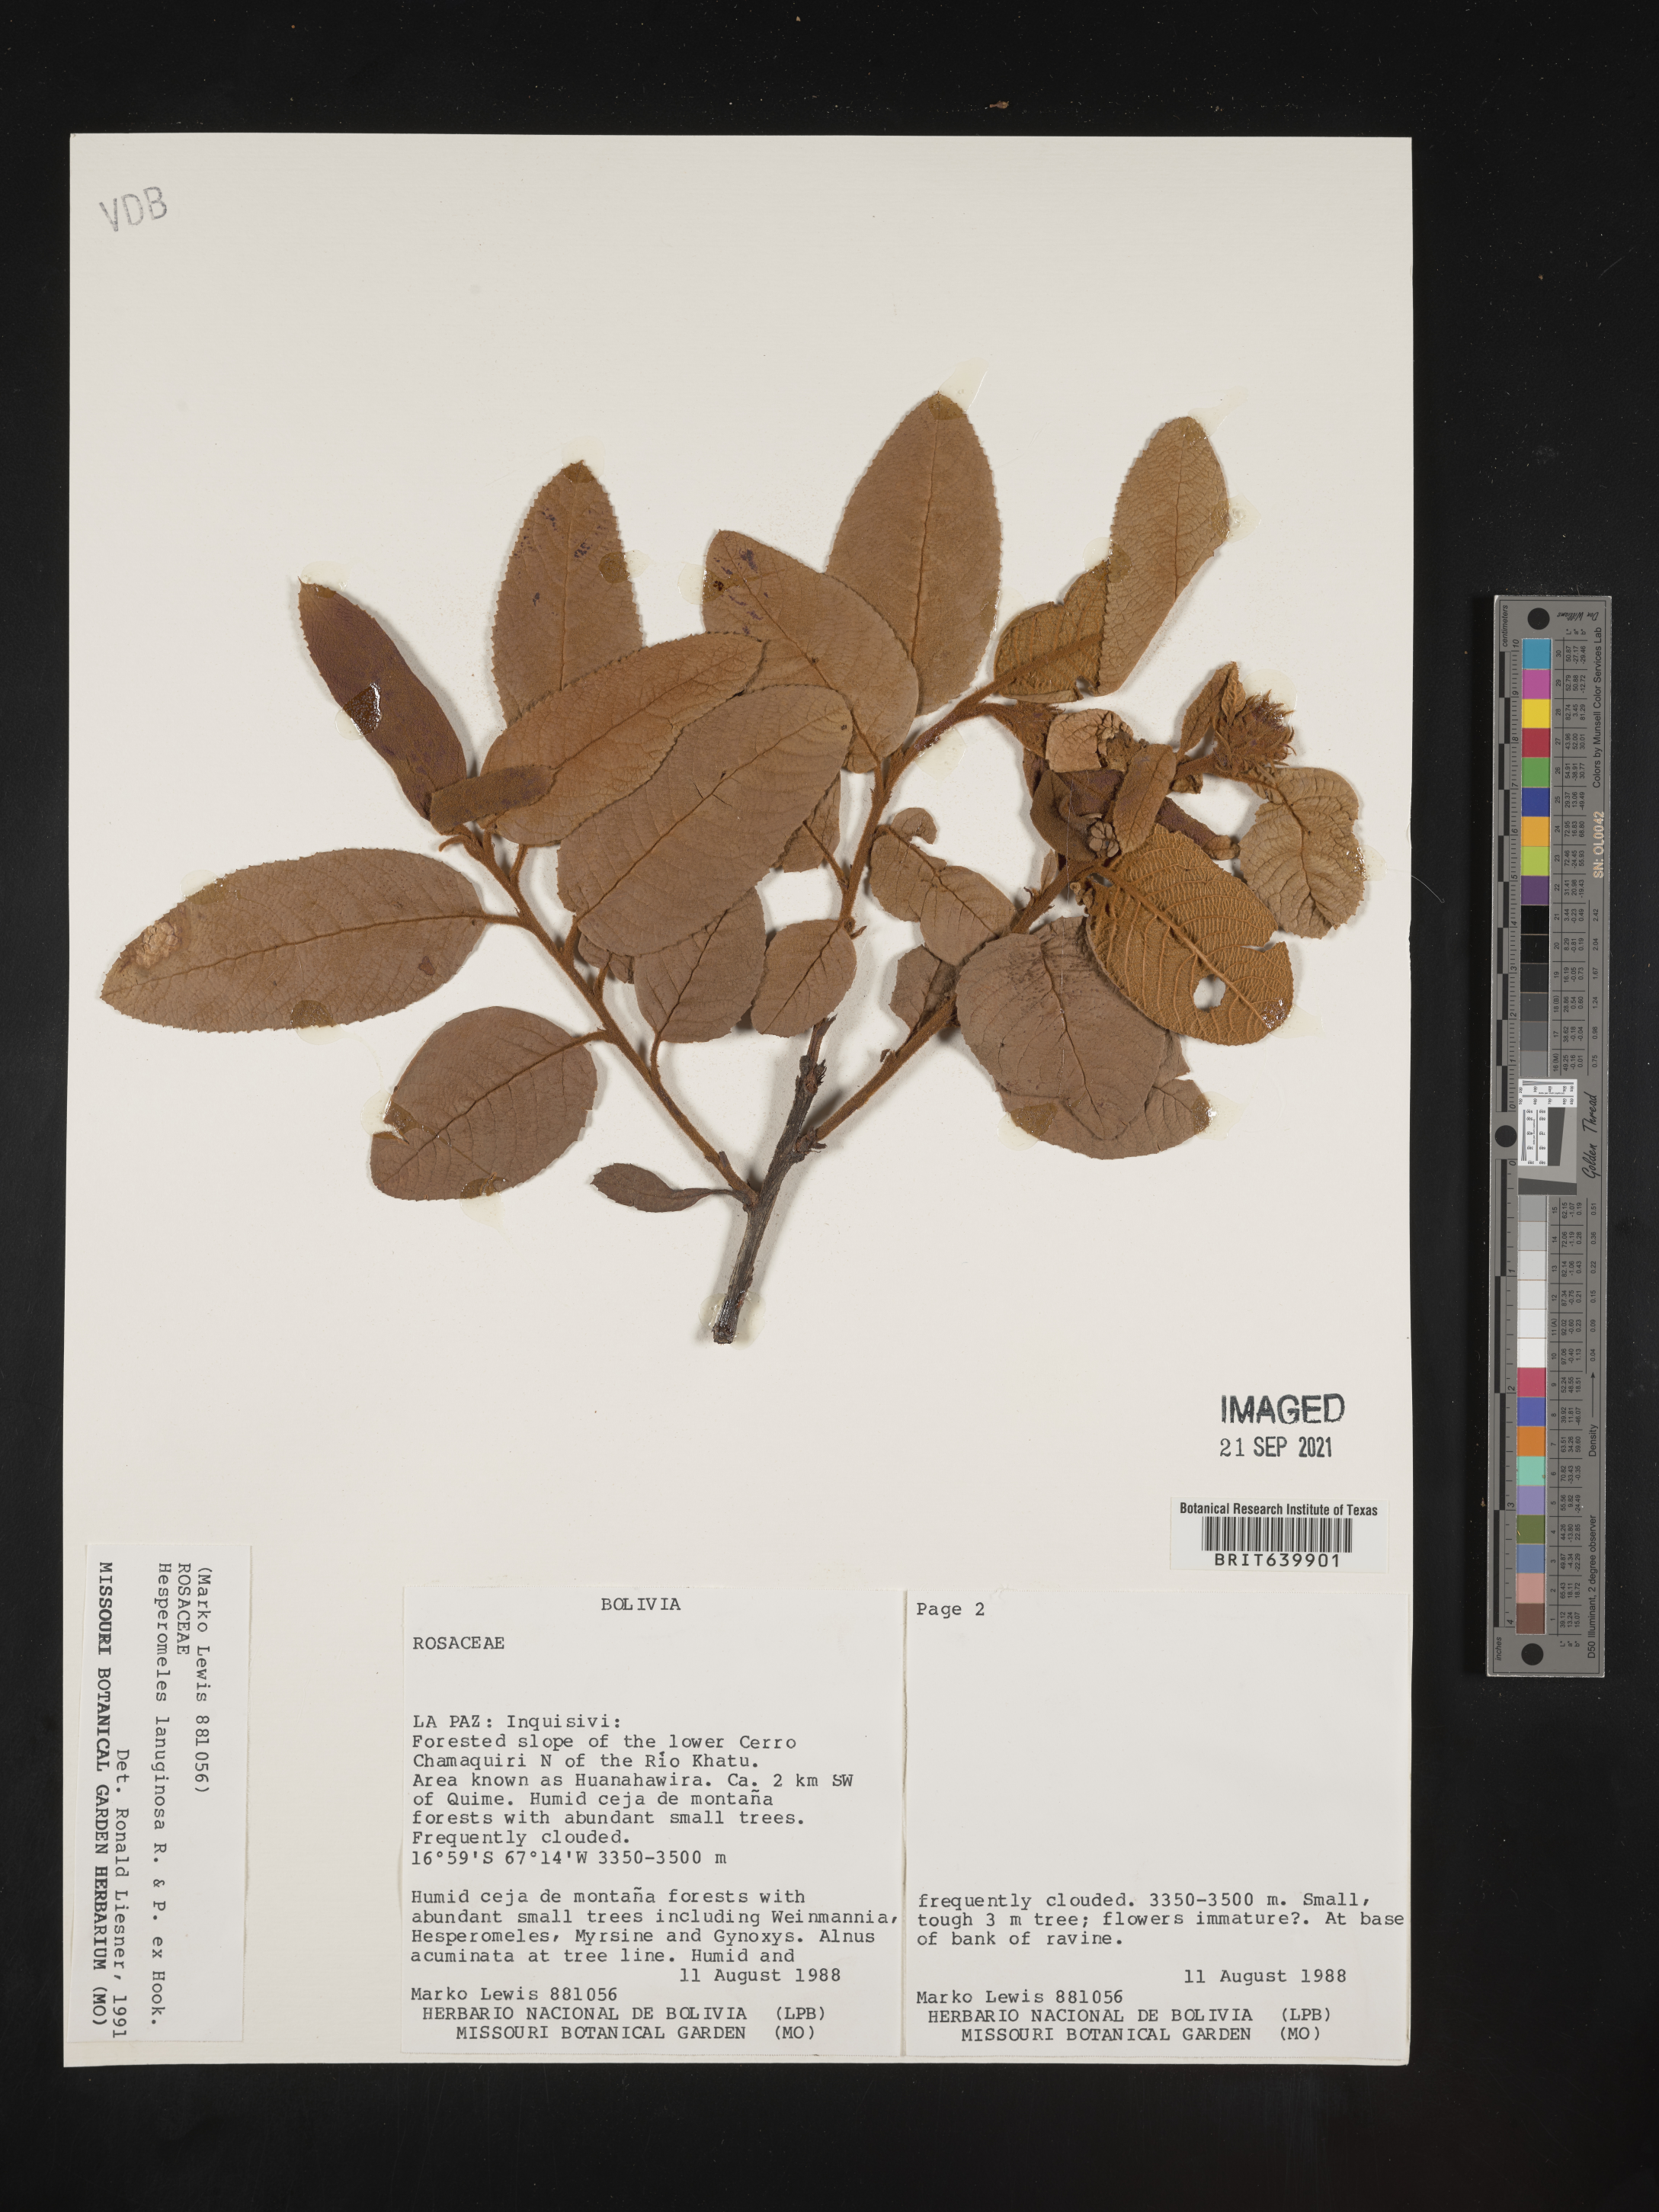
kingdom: Plantae
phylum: Tracheophyta
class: Magnoliopsida
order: Rosales
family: Rosaceae
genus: Hesperomeles
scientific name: Hesperomeles
